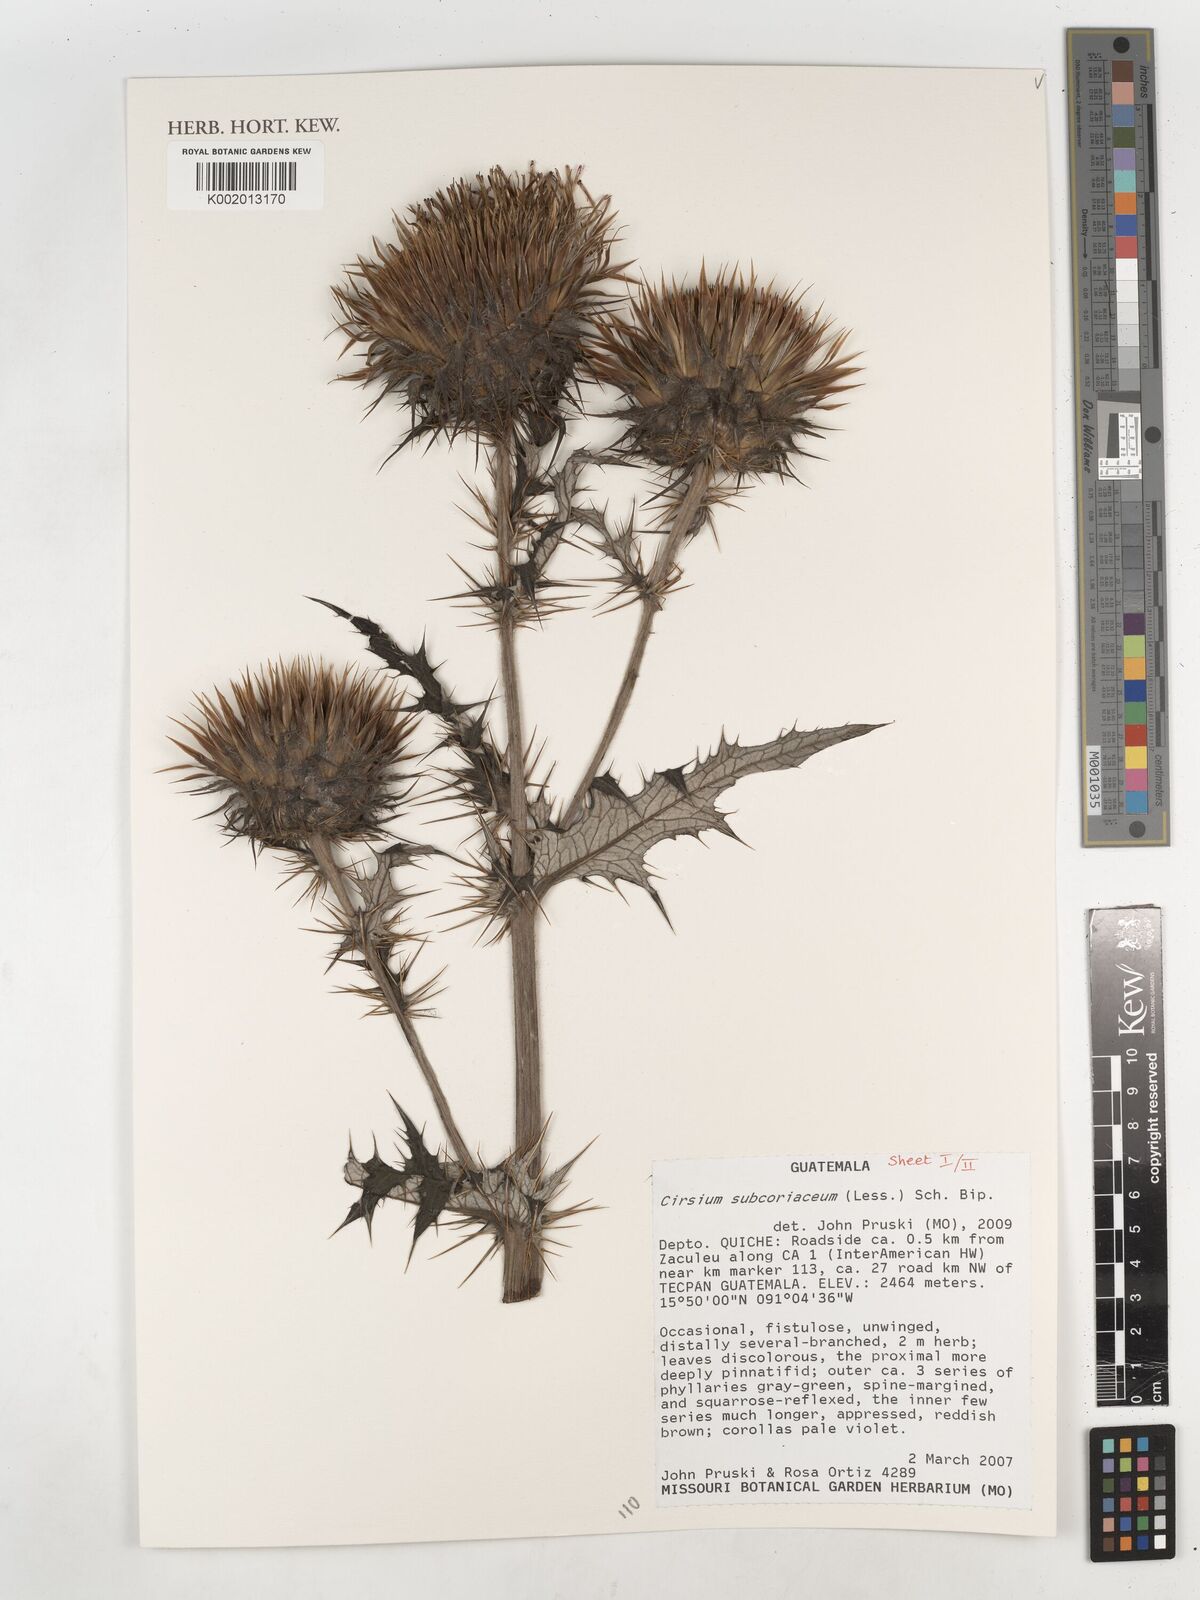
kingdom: Plantae
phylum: Tracheophyta
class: Magnoliopsida
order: Asterales
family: Asteraceae
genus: Cirsium
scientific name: Cirsium subcoriaceum
